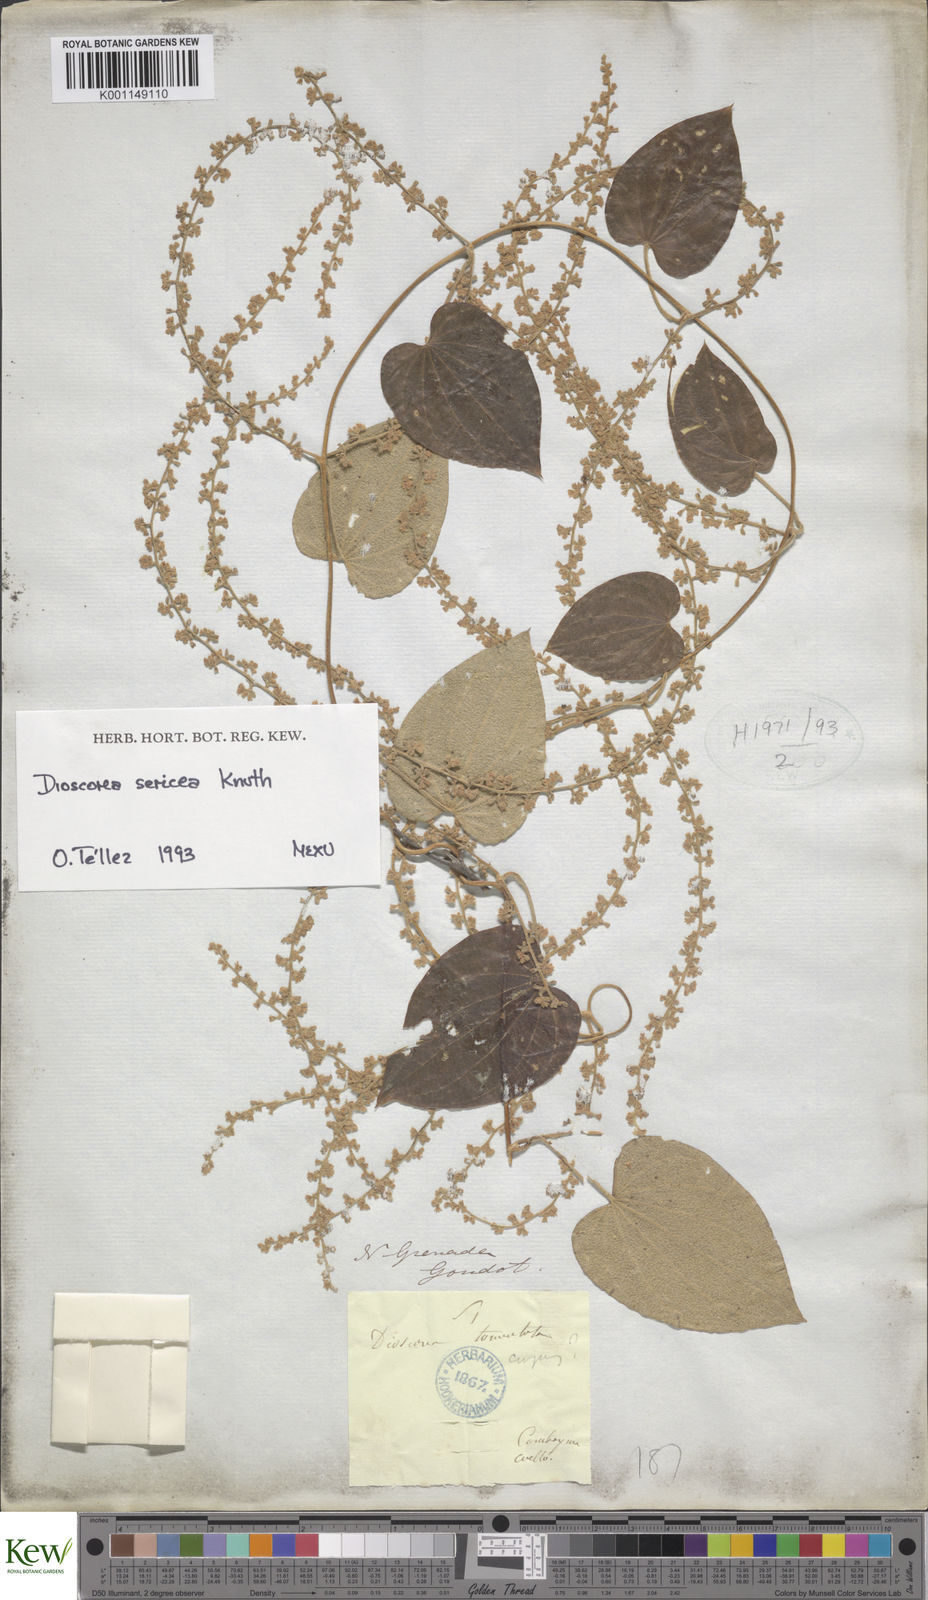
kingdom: Plantae
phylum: Tracheophyta
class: Liliopsida
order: Dioscoreales
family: Dioscoreaceae
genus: Dioscorea
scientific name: Dioscorea sericea
